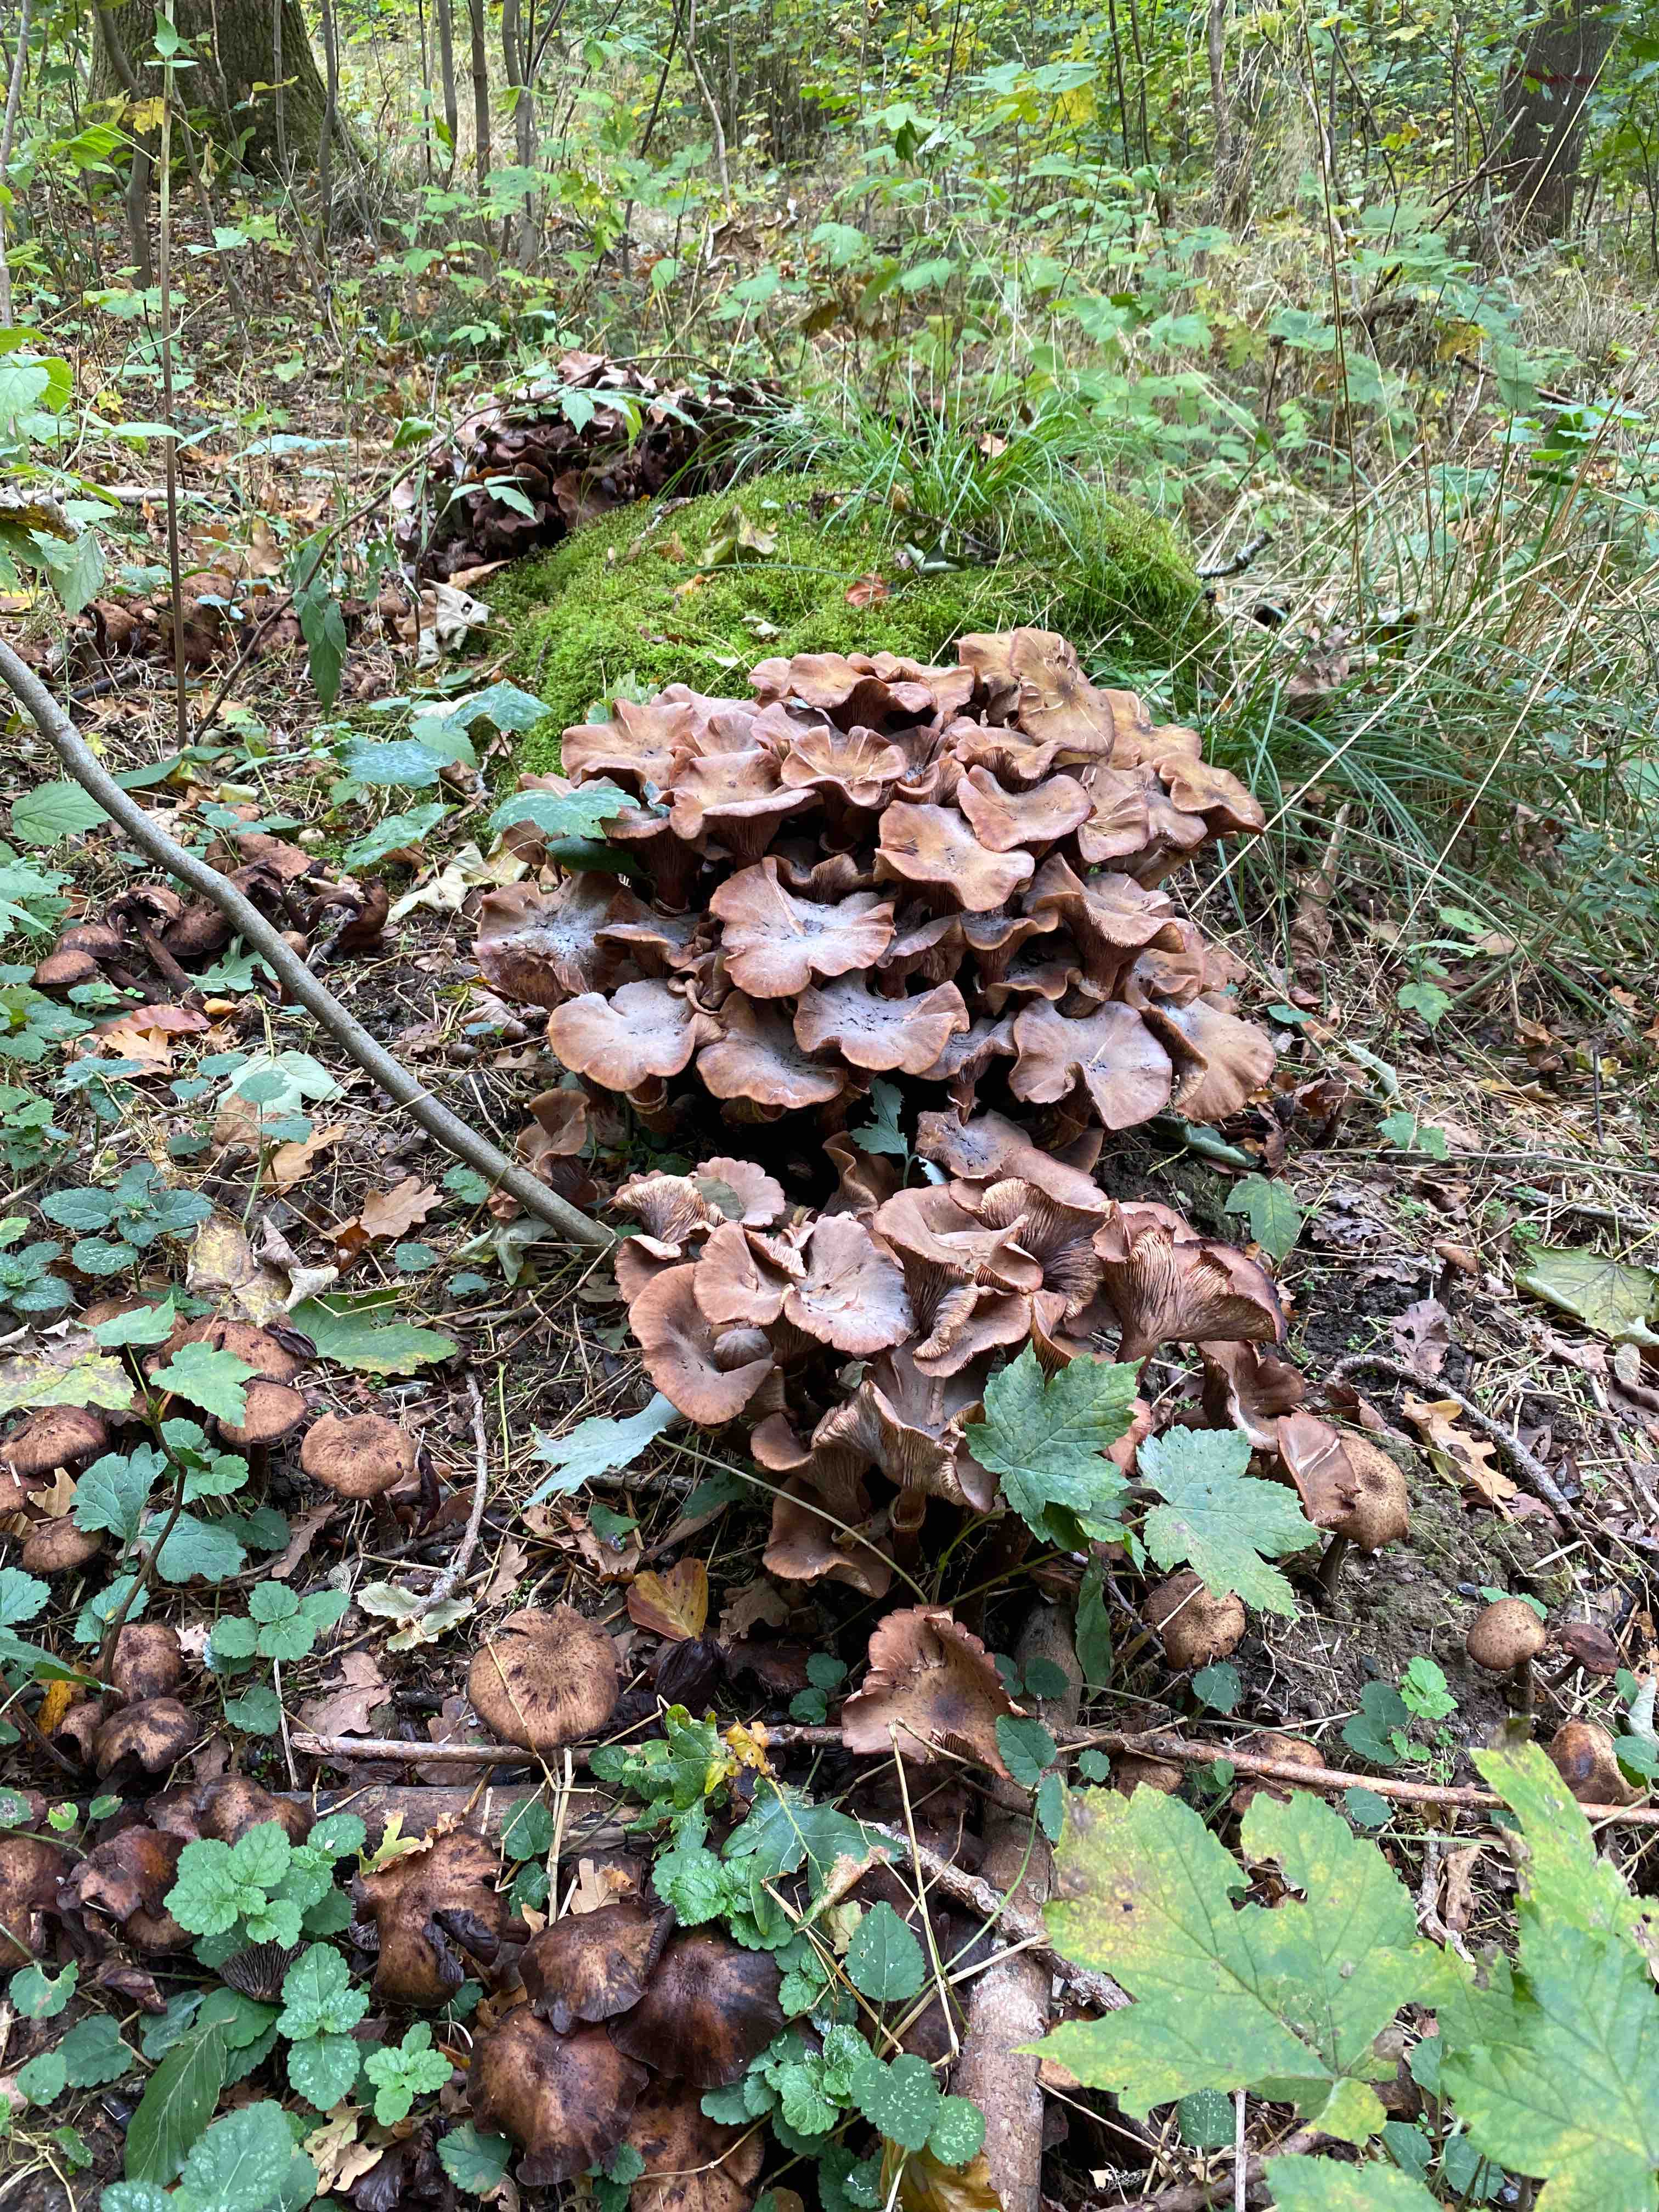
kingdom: Fungi
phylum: Basidiomycota
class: Agaricomycetes
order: Agaricales
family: Physalacriaceae
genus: Armillaria
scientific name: Armillaria mellea
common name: ægte honningsvamp
